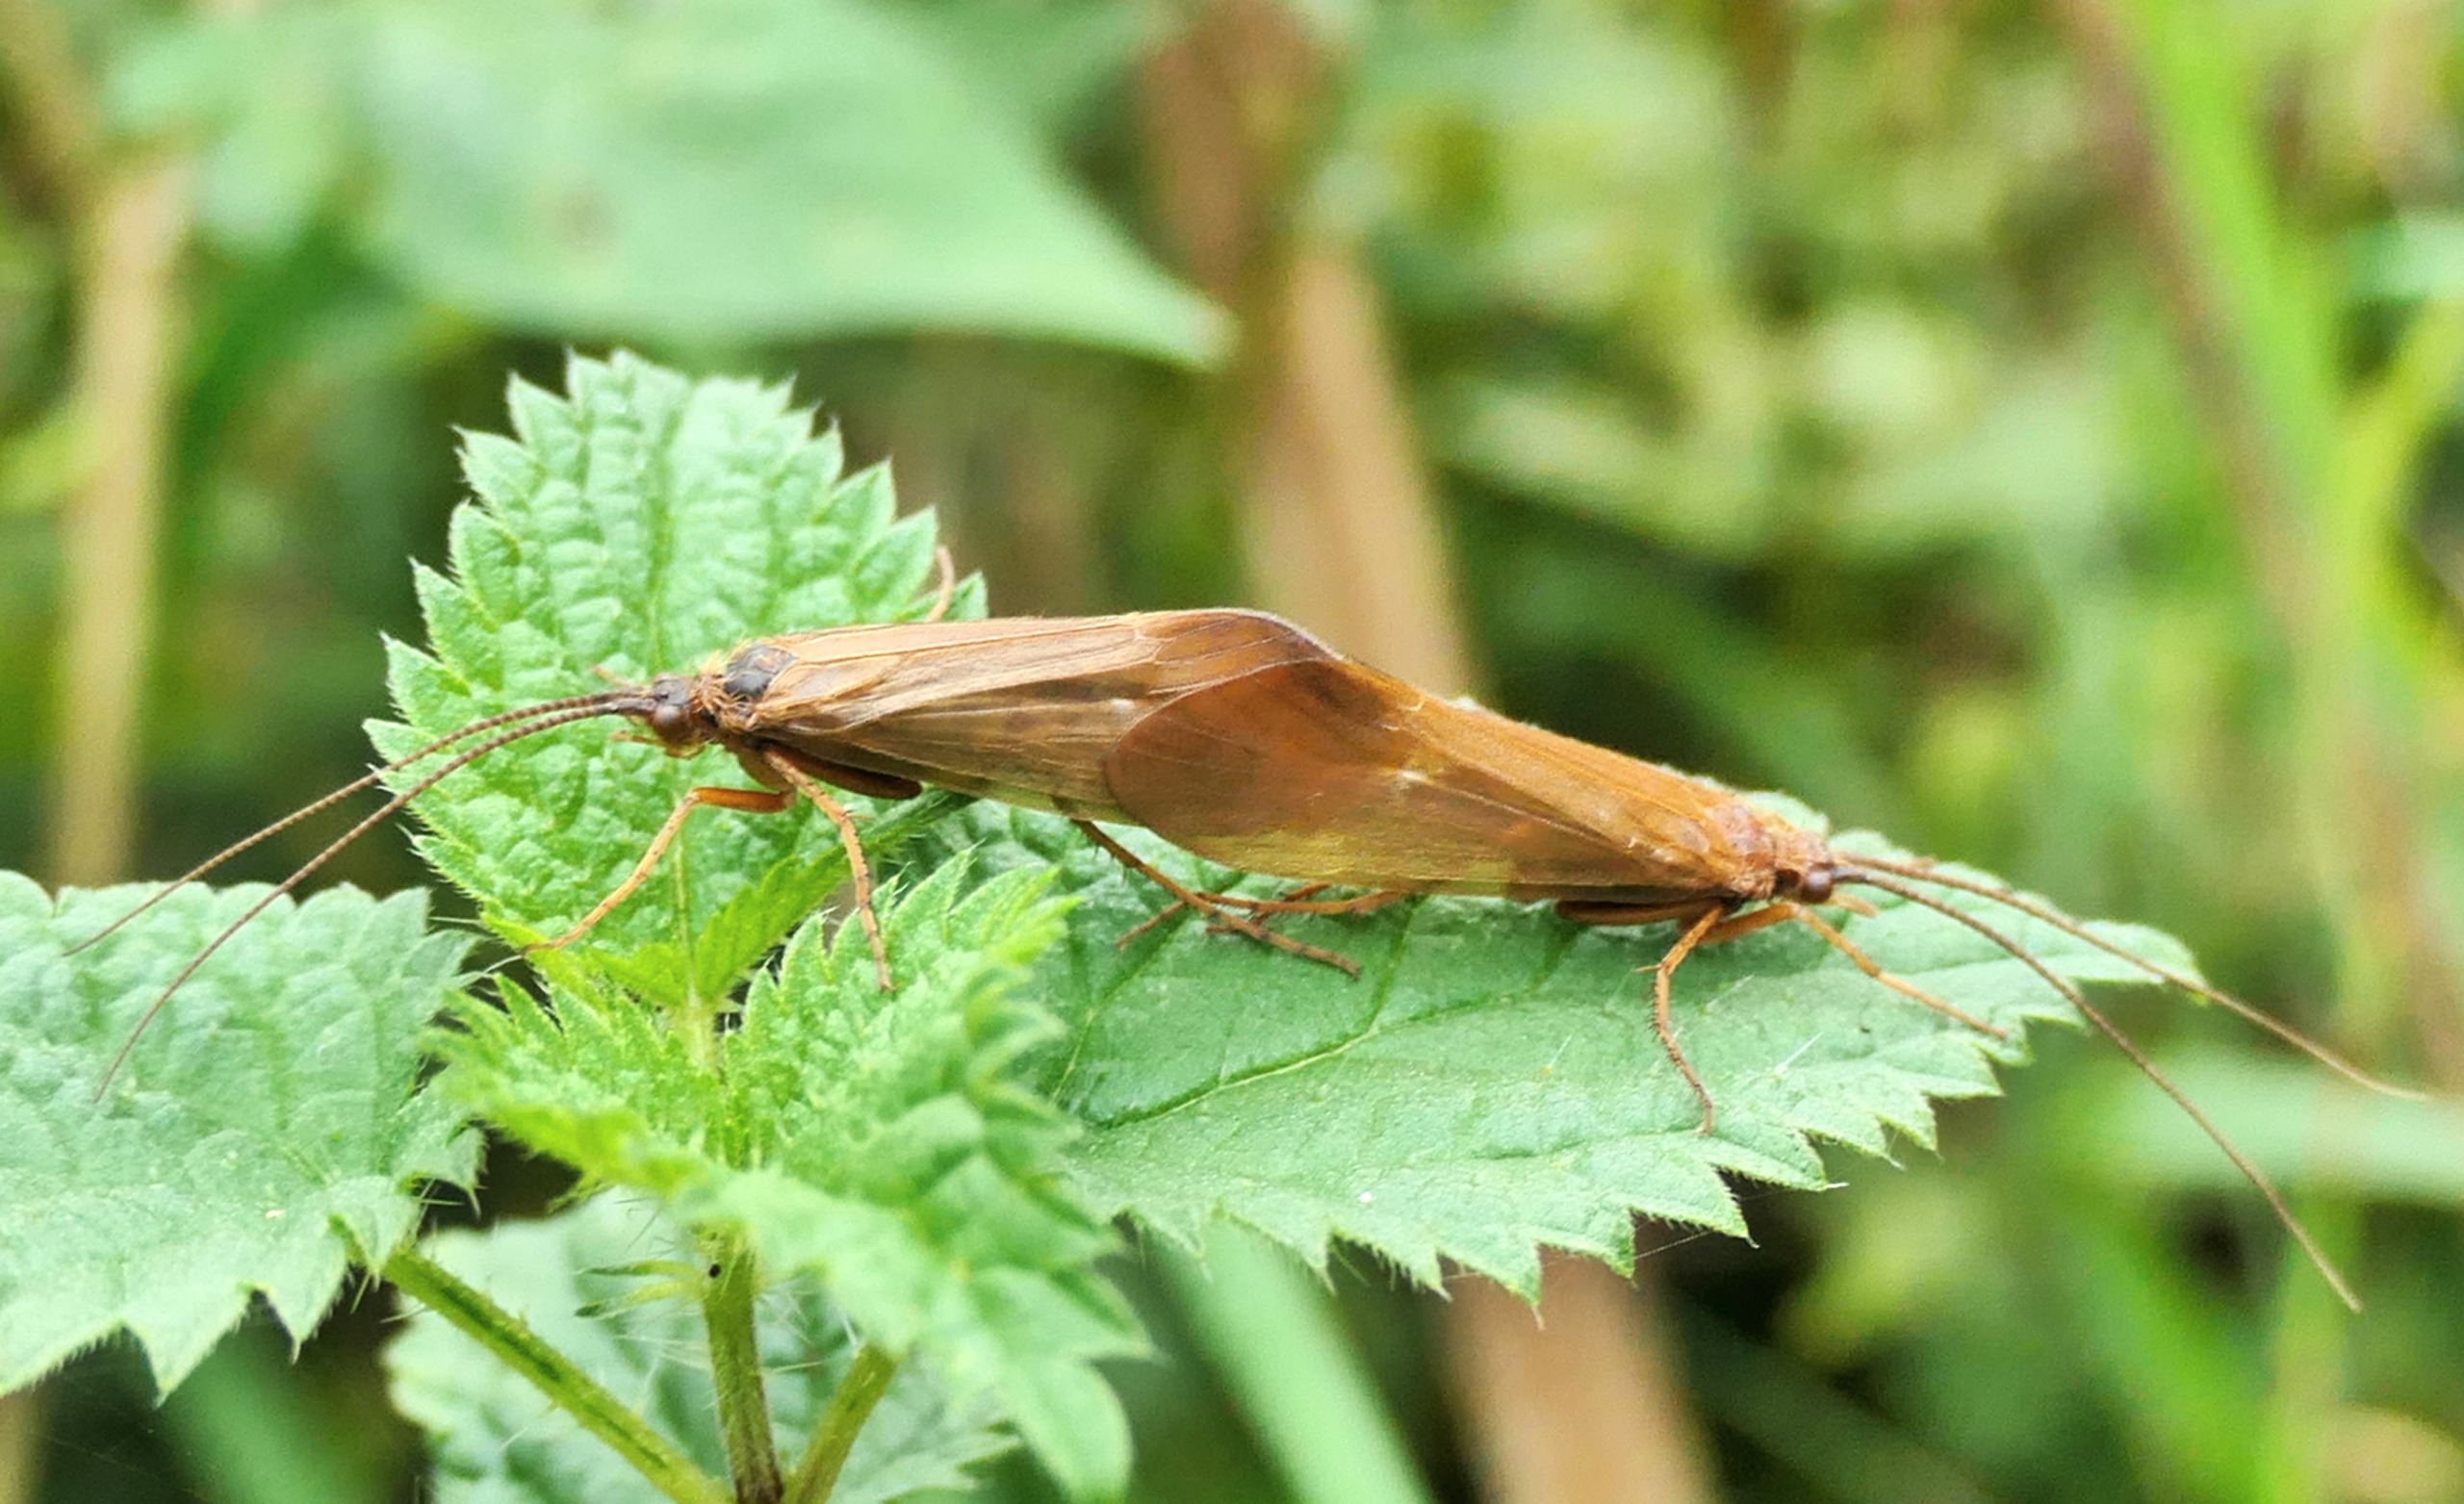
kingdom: Animalia
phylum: Arthropoda
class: Insecta
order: Trichoptera
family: Limnephilidae
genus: Anabolia
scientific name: Anabolia laevis
